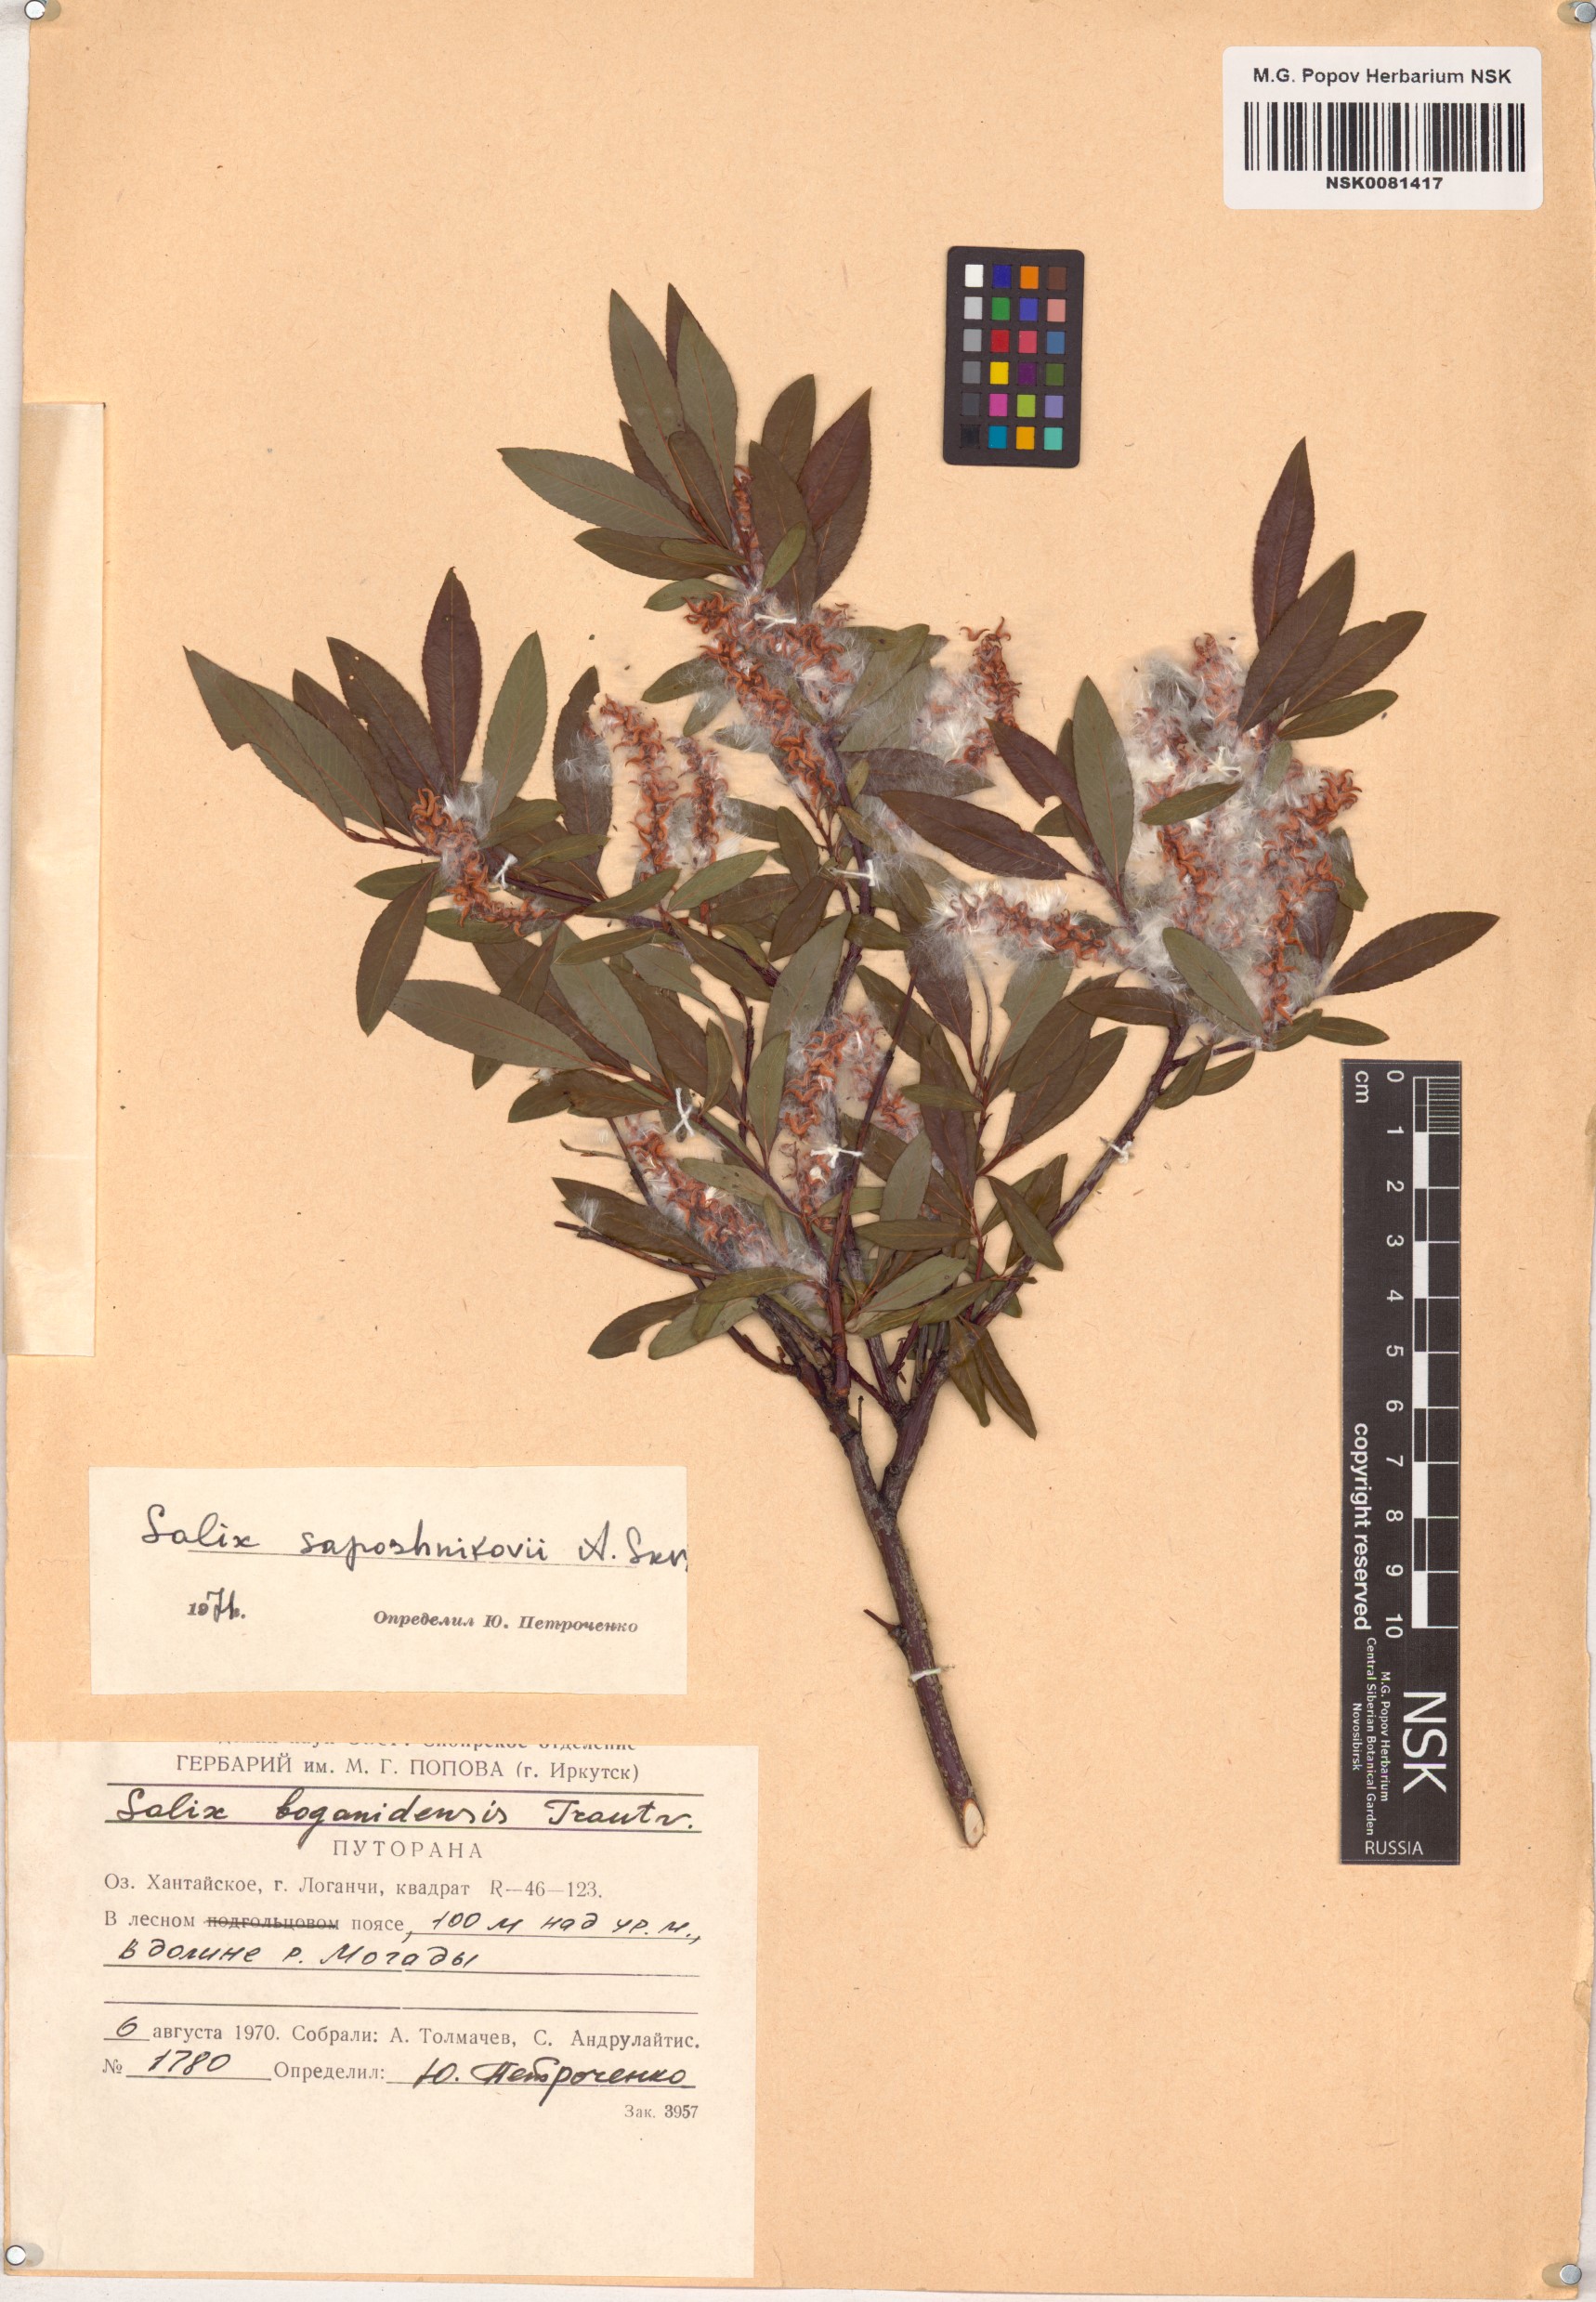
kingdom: Plantae
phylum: Tracheophyta
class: Magnoliopsida
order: Malpighiales
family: Salicaceae
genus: Salix
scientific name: Salix saposhnikovii
